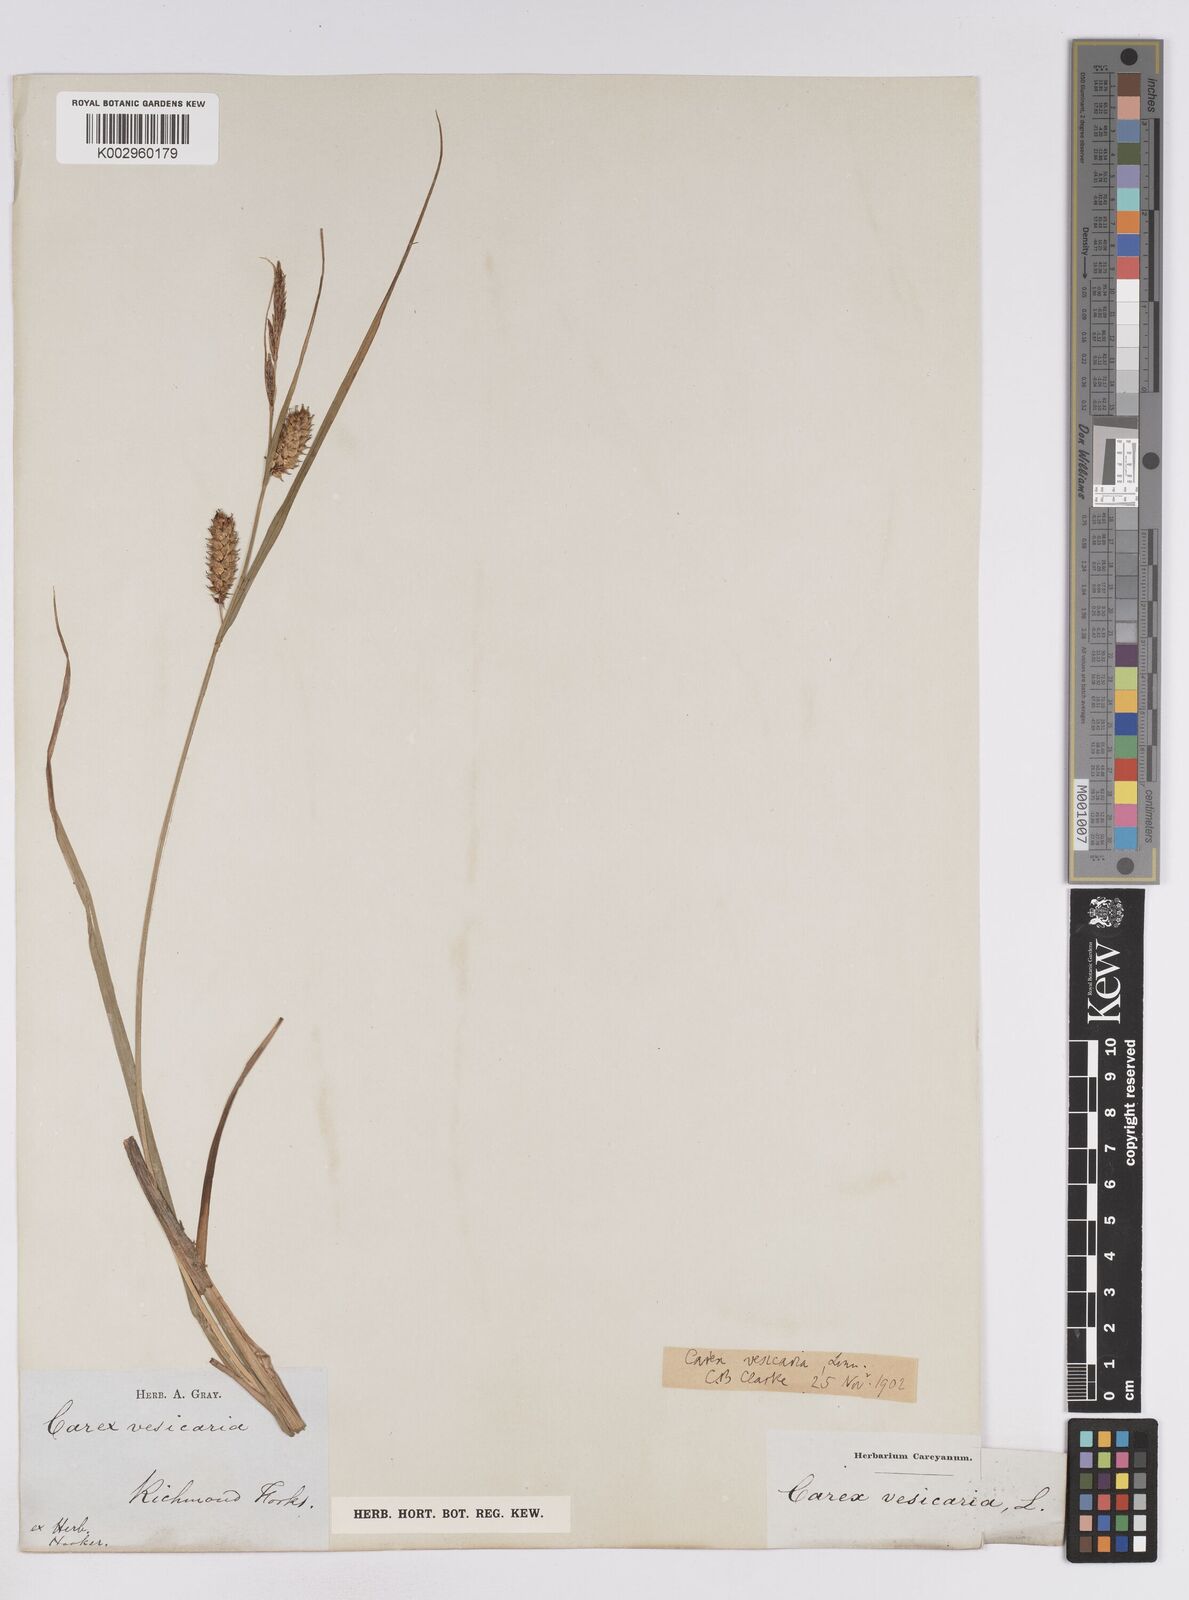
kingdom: Plantae
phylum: Tracheophyta
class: Liliopsida
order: Poales
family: Cyperaceae
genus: Carex
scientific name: Carex vesicaria
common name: Bladder-sedge
